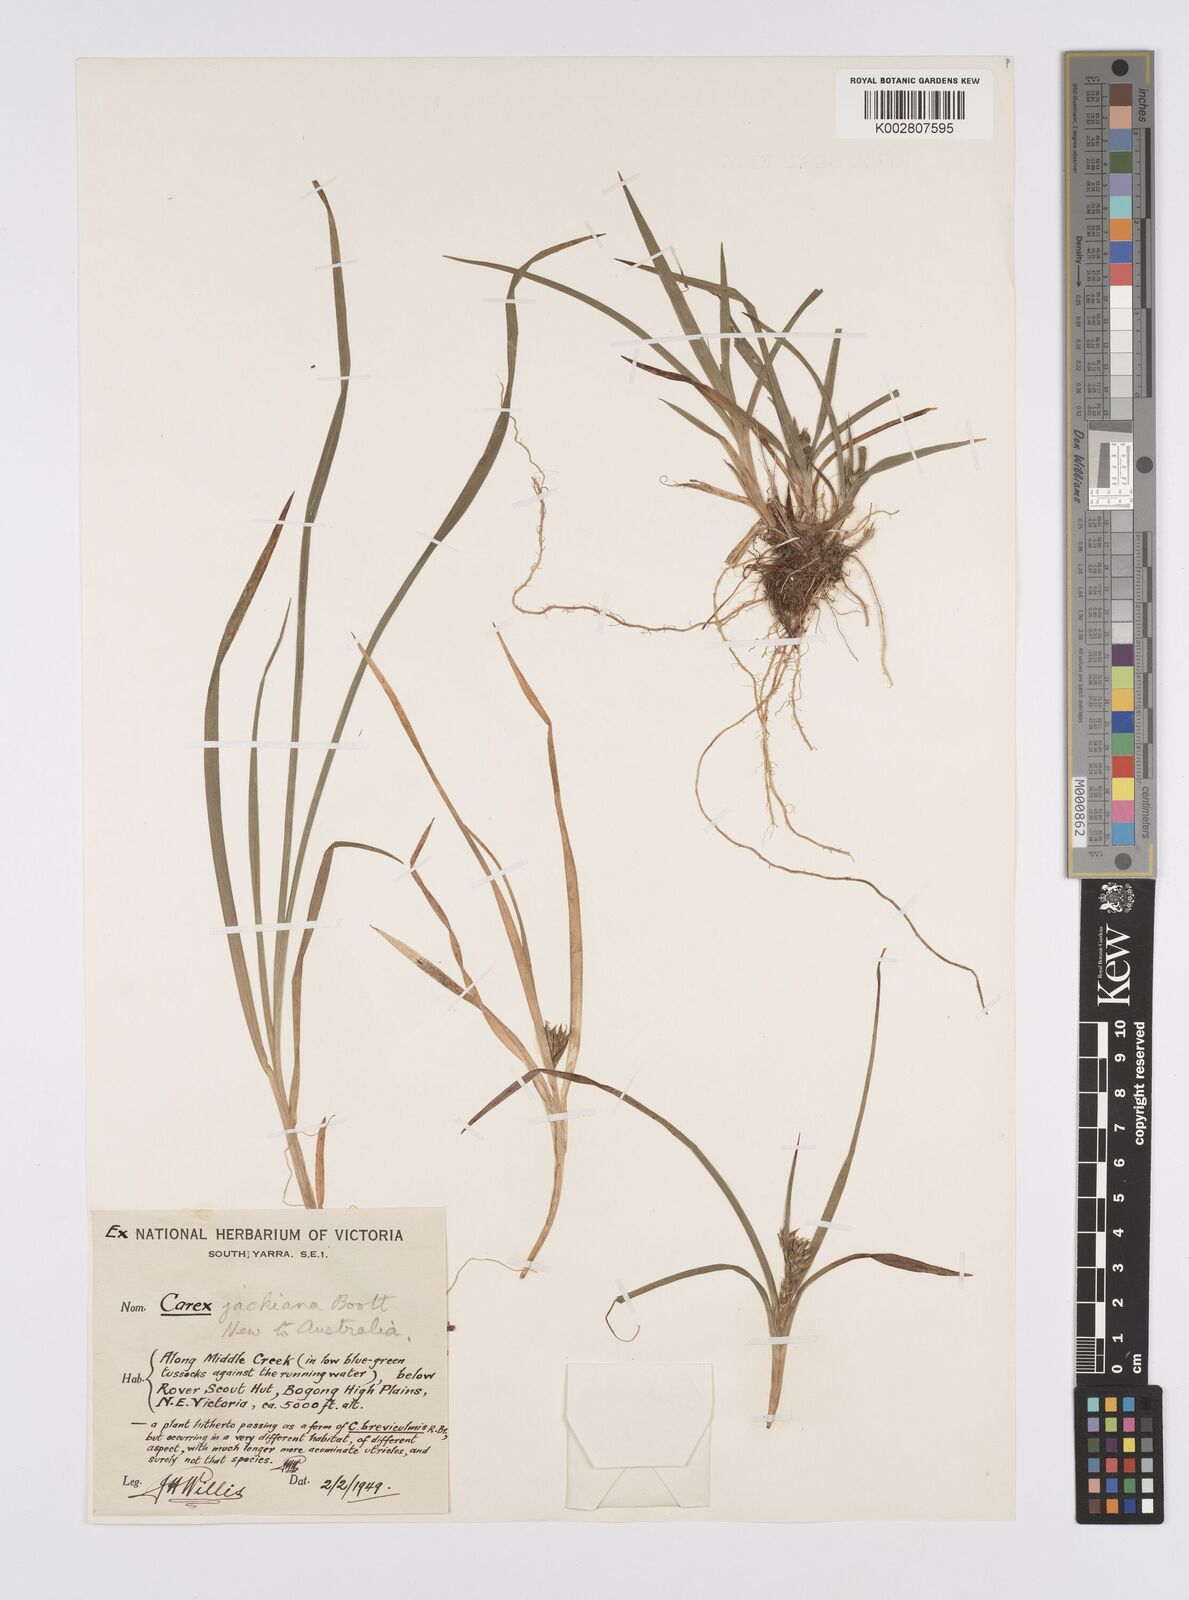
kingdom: Plantae
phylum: Tracheophyta
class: Liliopsida
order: Poales
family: Cyperaceae
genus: Carex
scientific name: Carex jackiana
